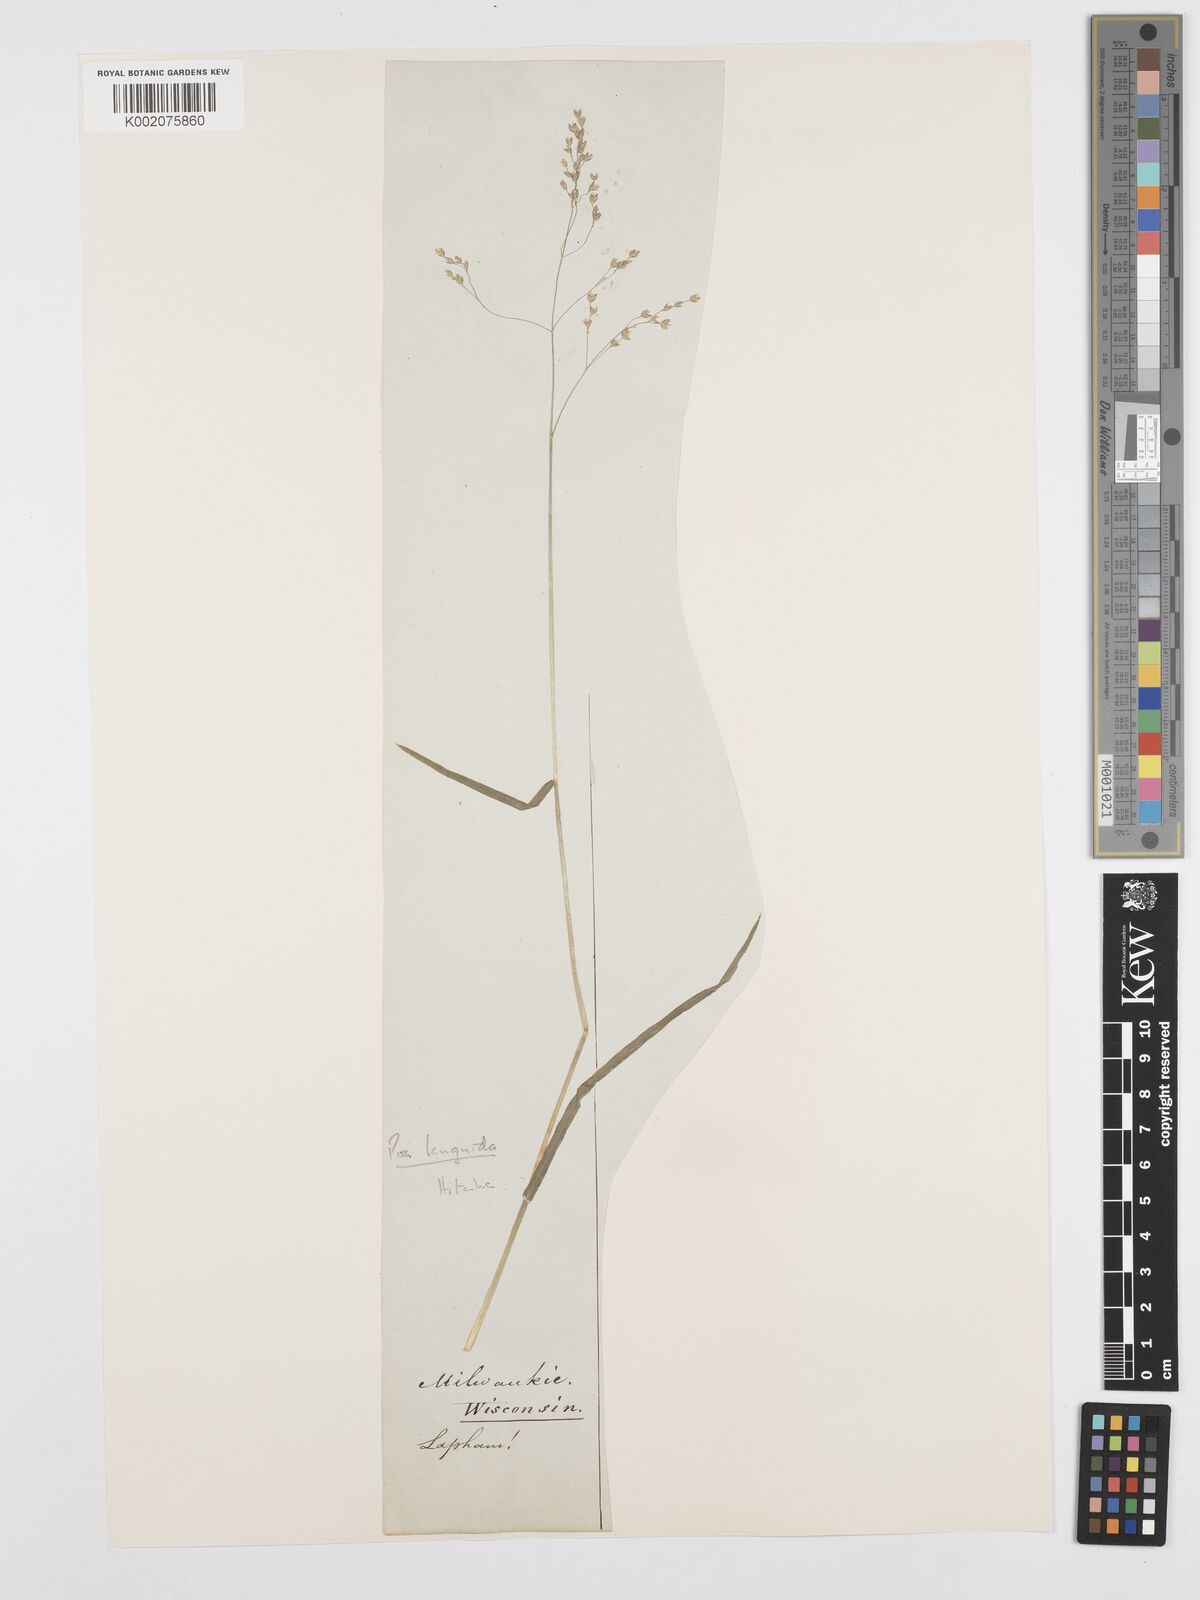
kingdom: Plantae
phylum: Tracheophyta
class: Liliopsida
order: Poales
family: Poaceae
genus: Poa
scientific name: Poa saltuensis
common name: Bushy pasture speargrass
